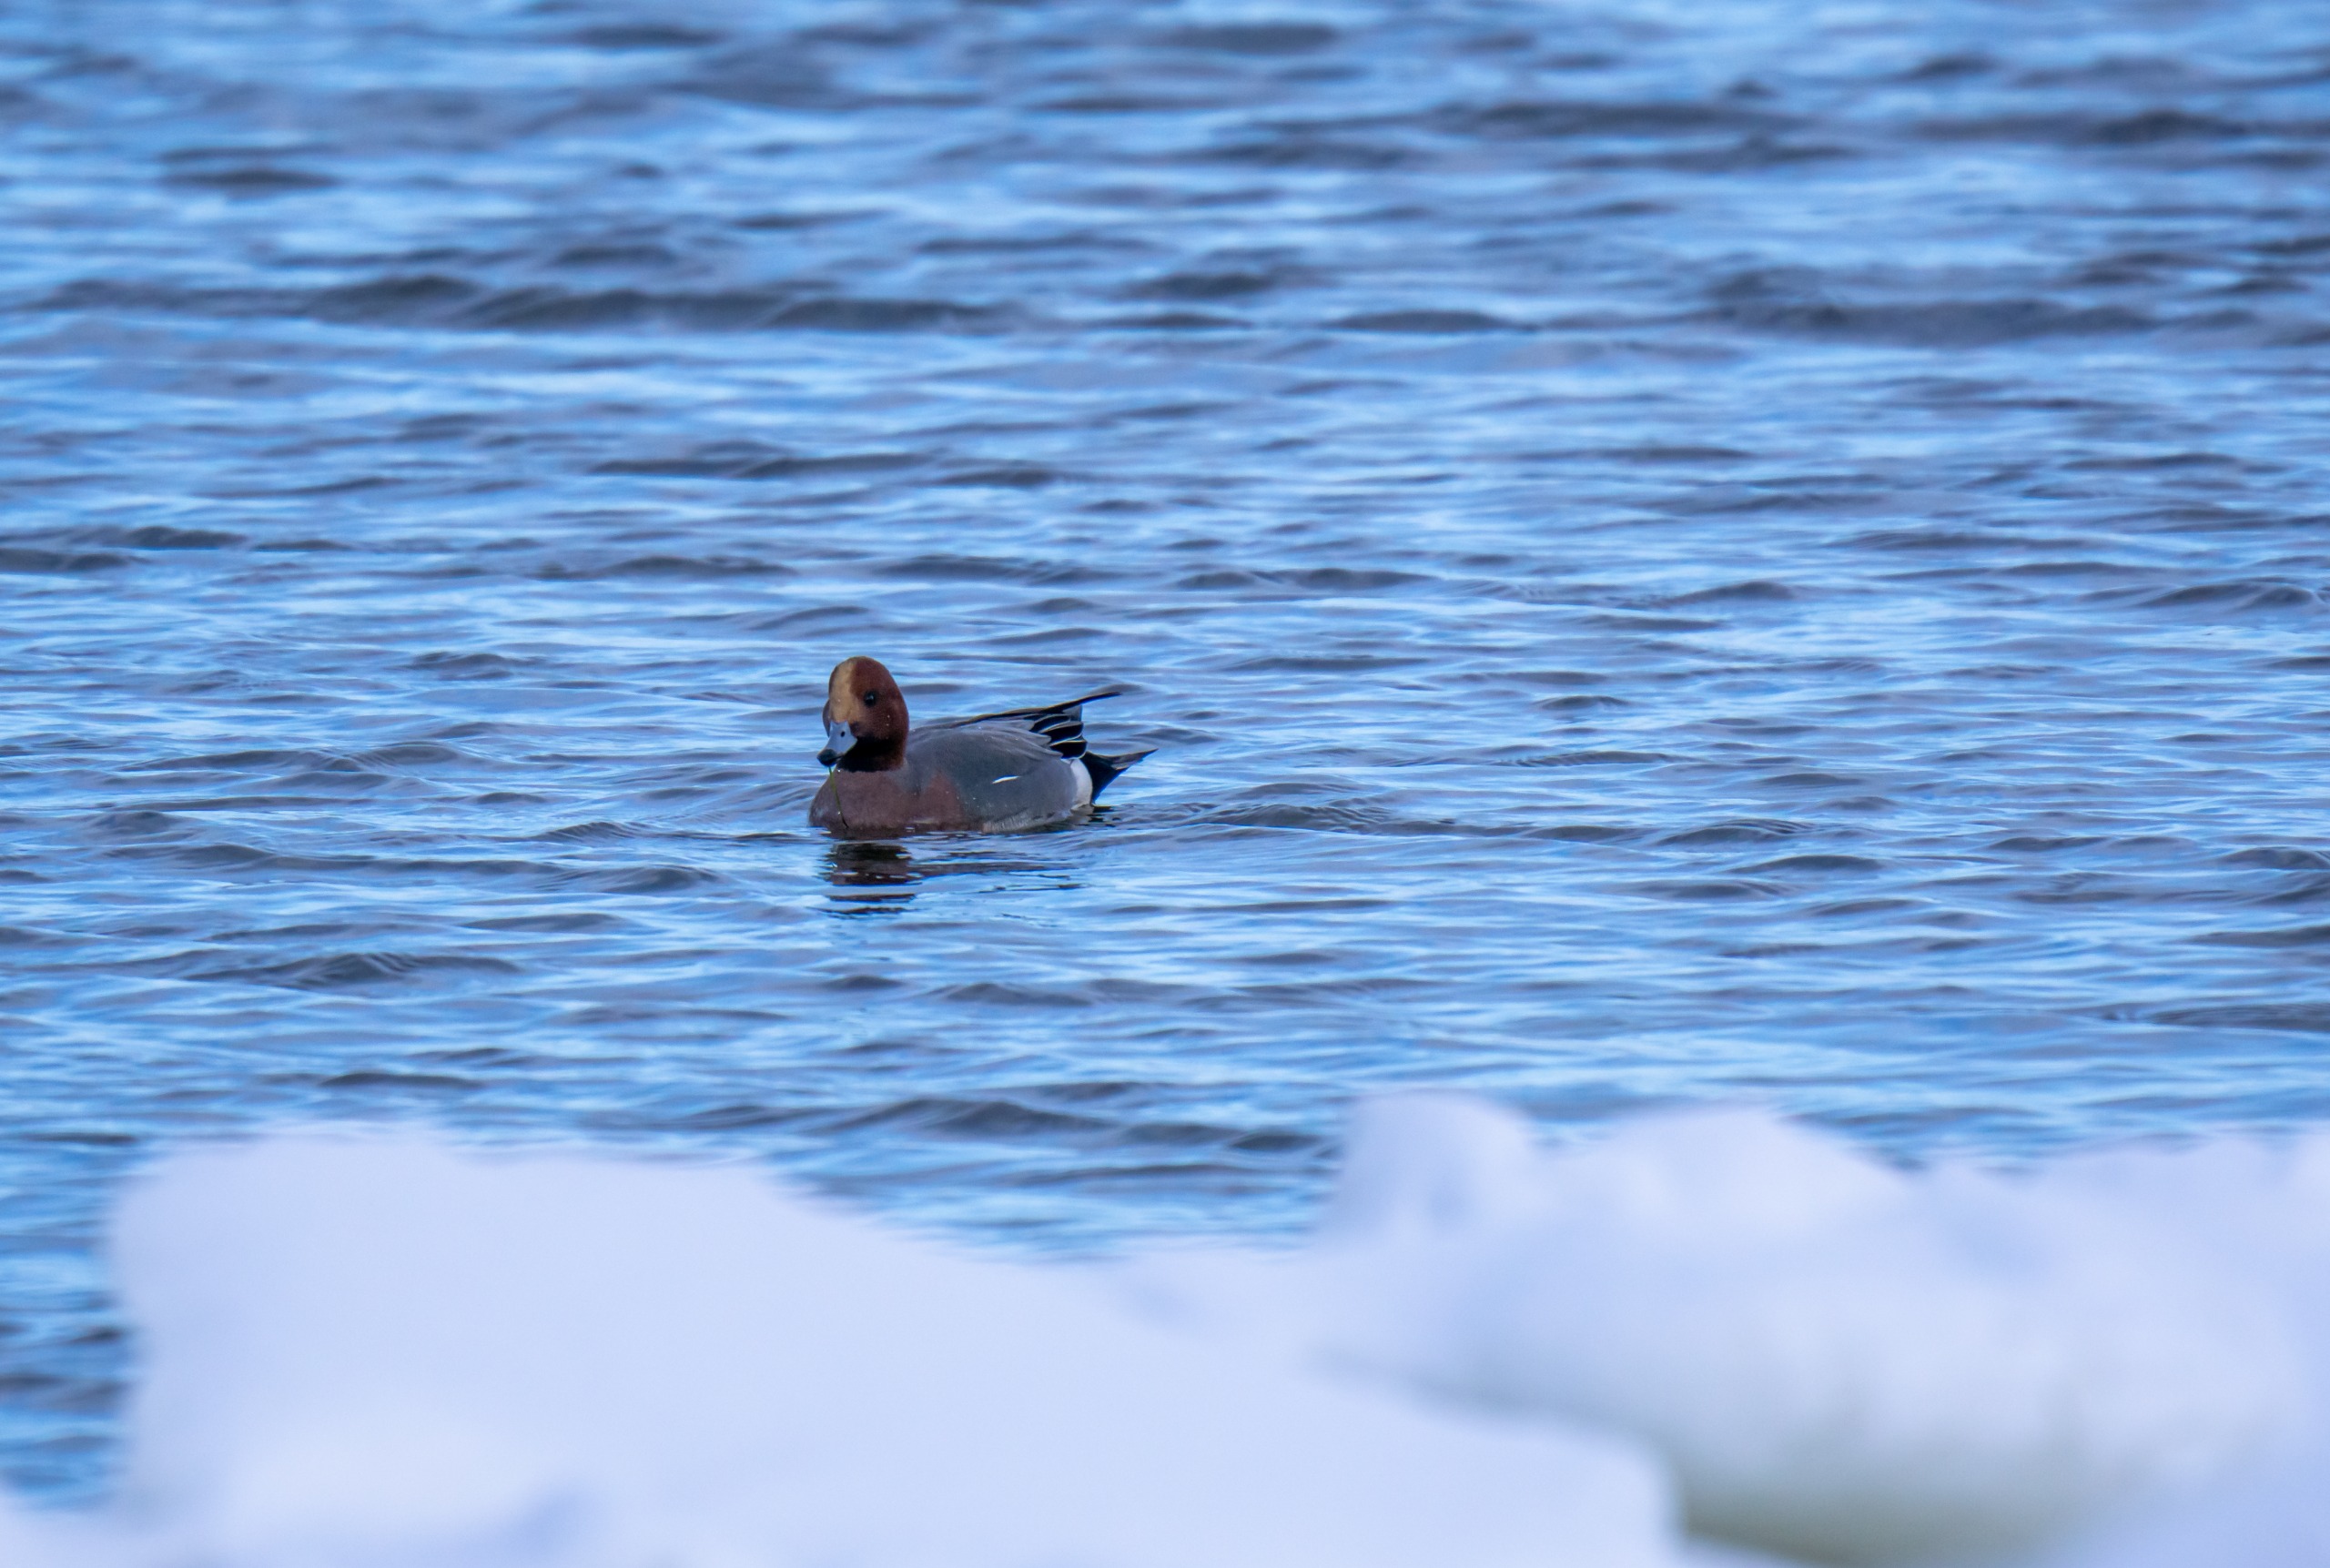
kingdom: Animalia
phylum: Chordata
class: Aves
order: Anseriformes
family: Anatidae
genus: Mareca
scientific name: Mareca penelope
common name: Pibeand
